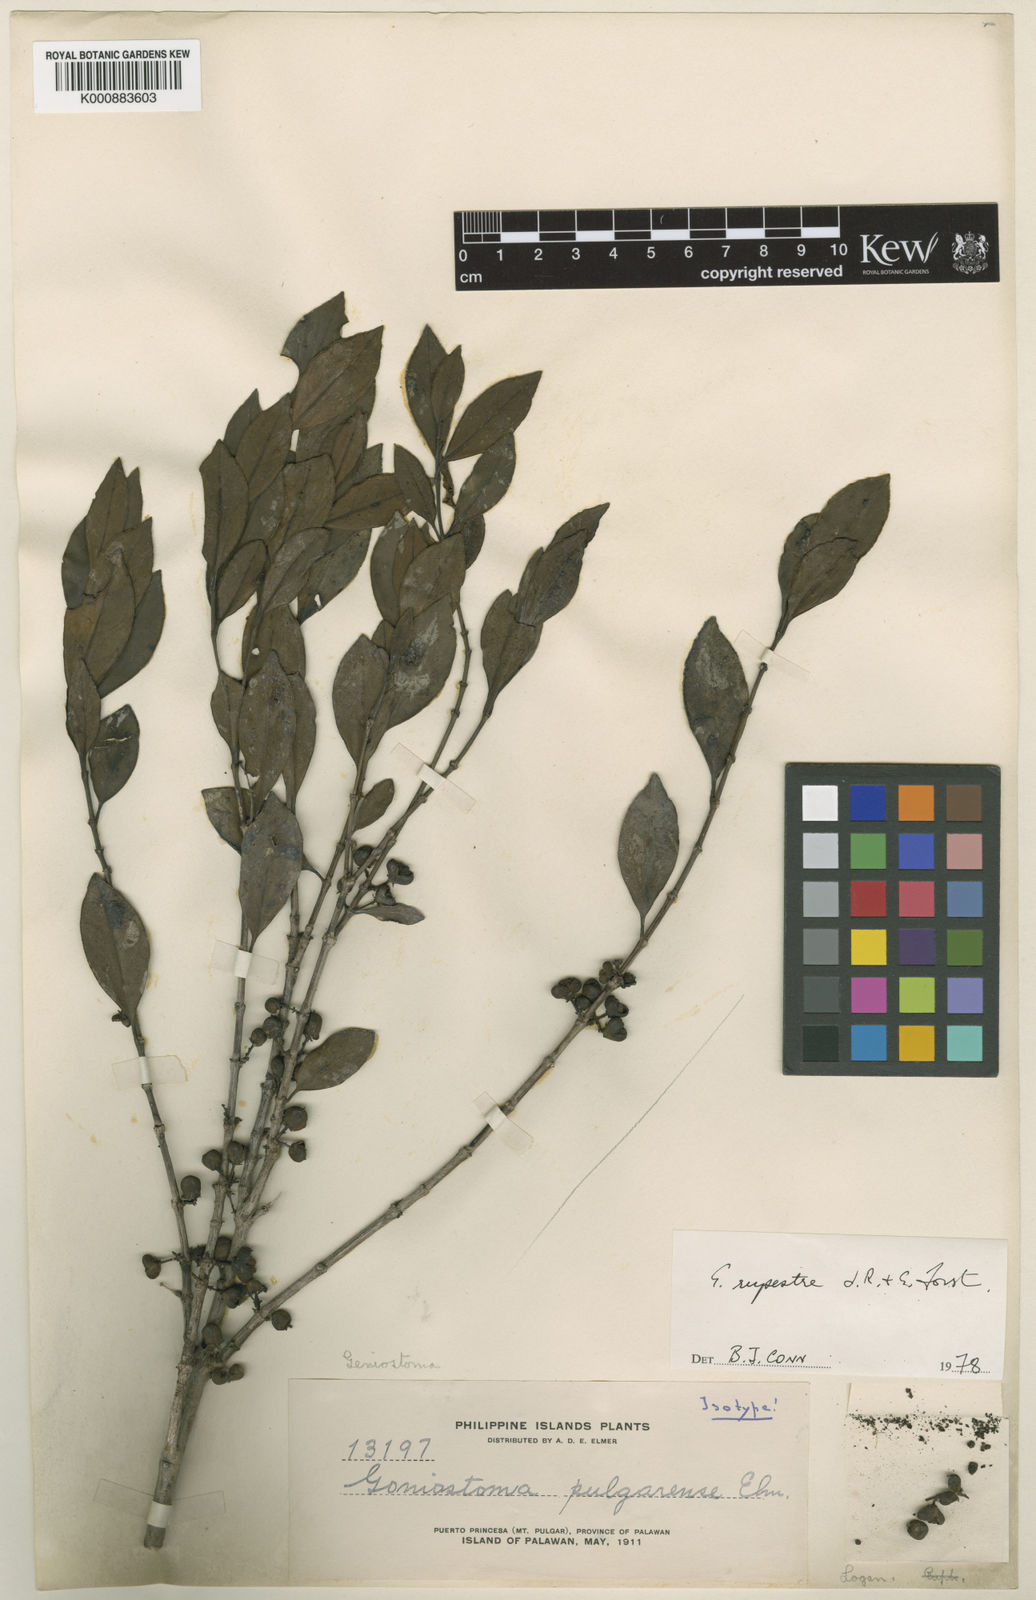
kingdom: Plantae
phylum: Tracheophyta
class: Magnoliopsida
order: Gentianales
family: Loganiaceae
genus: Geniostoma
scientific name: Geniostoma rupestre
